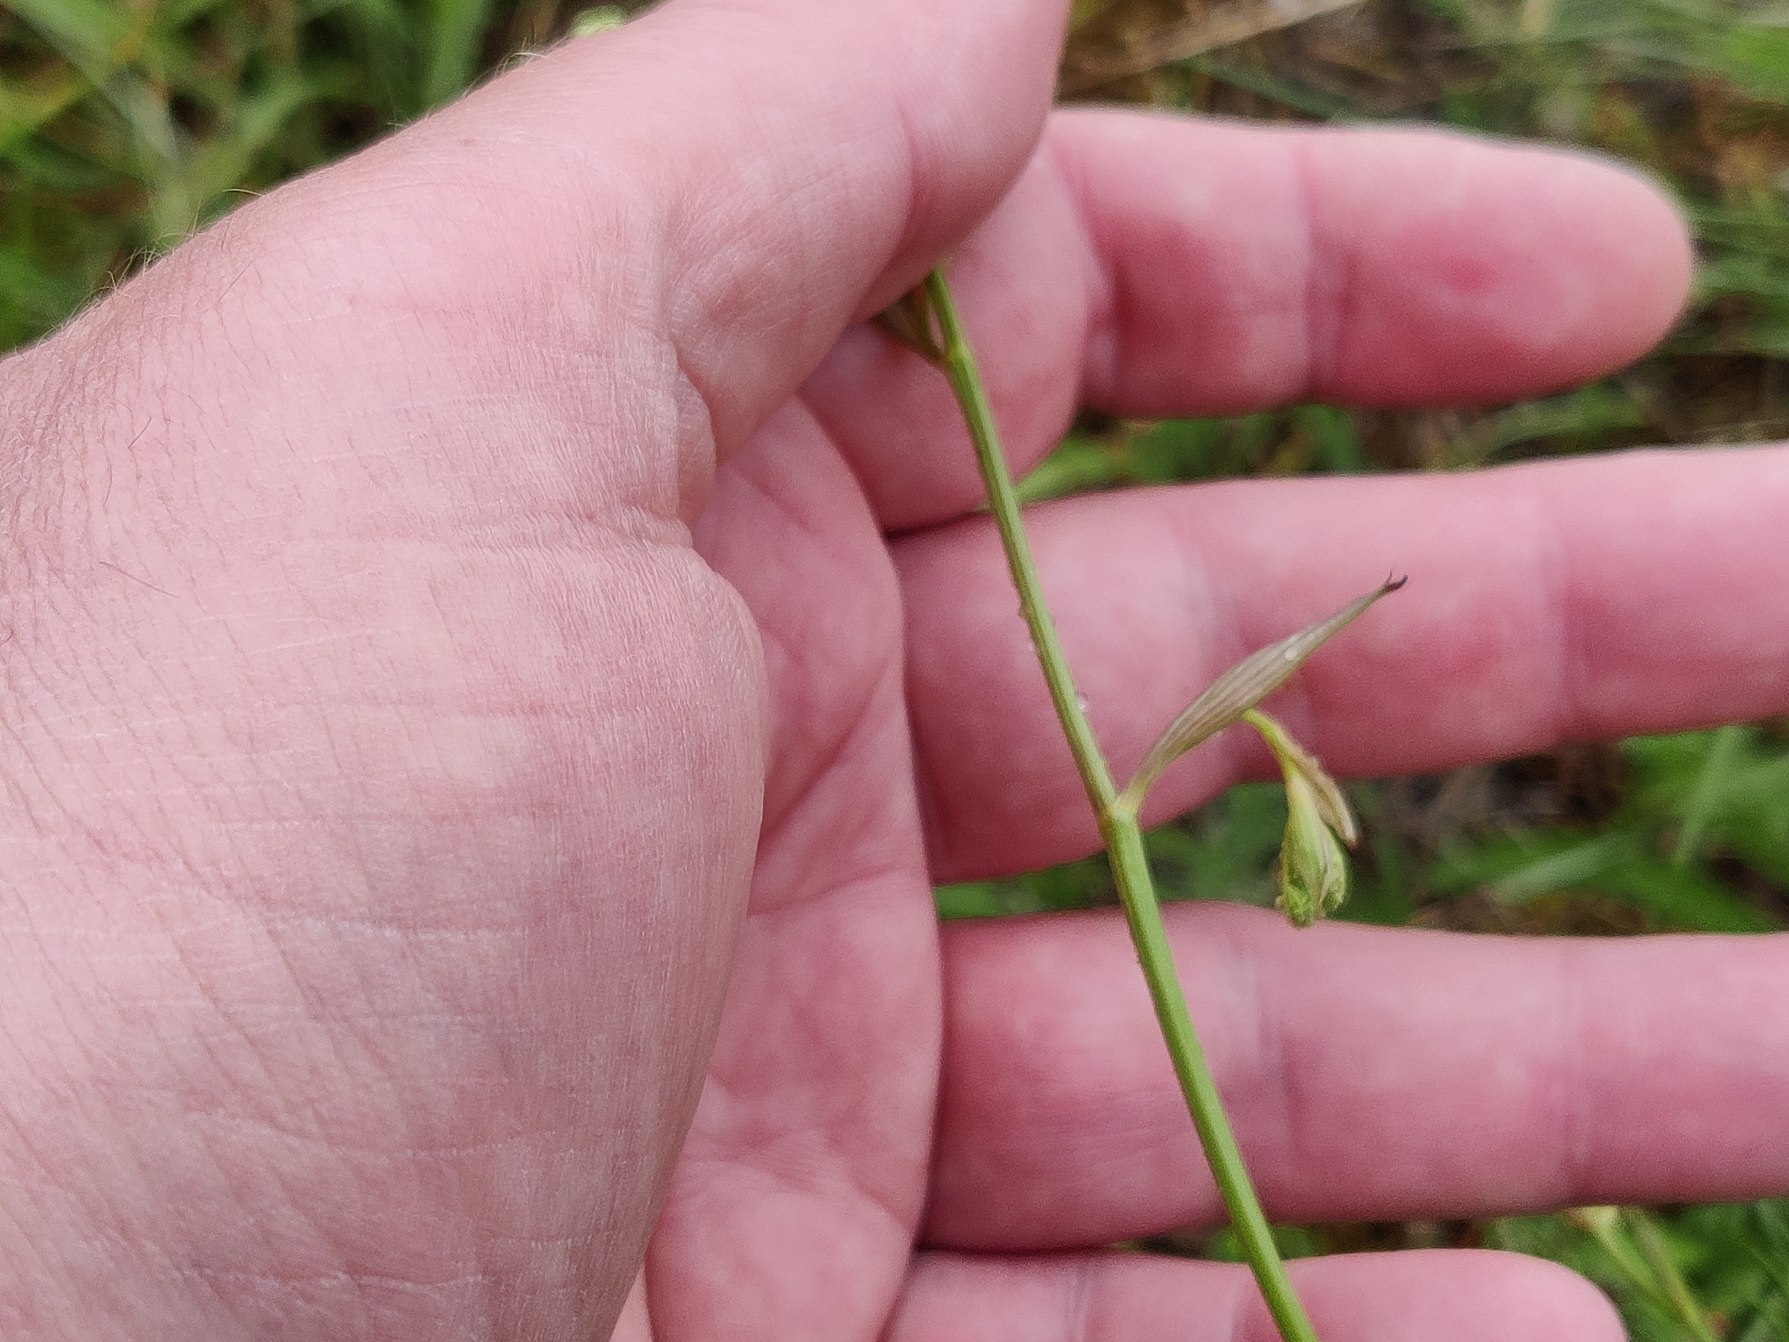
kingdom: Plantae
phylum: Tracheophyta
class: Magnoliopsida
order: Apiales
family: Apiaceae
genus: Pimpinella
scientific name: Pimpinella saxifraga
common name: Almindelig pimpinelle
